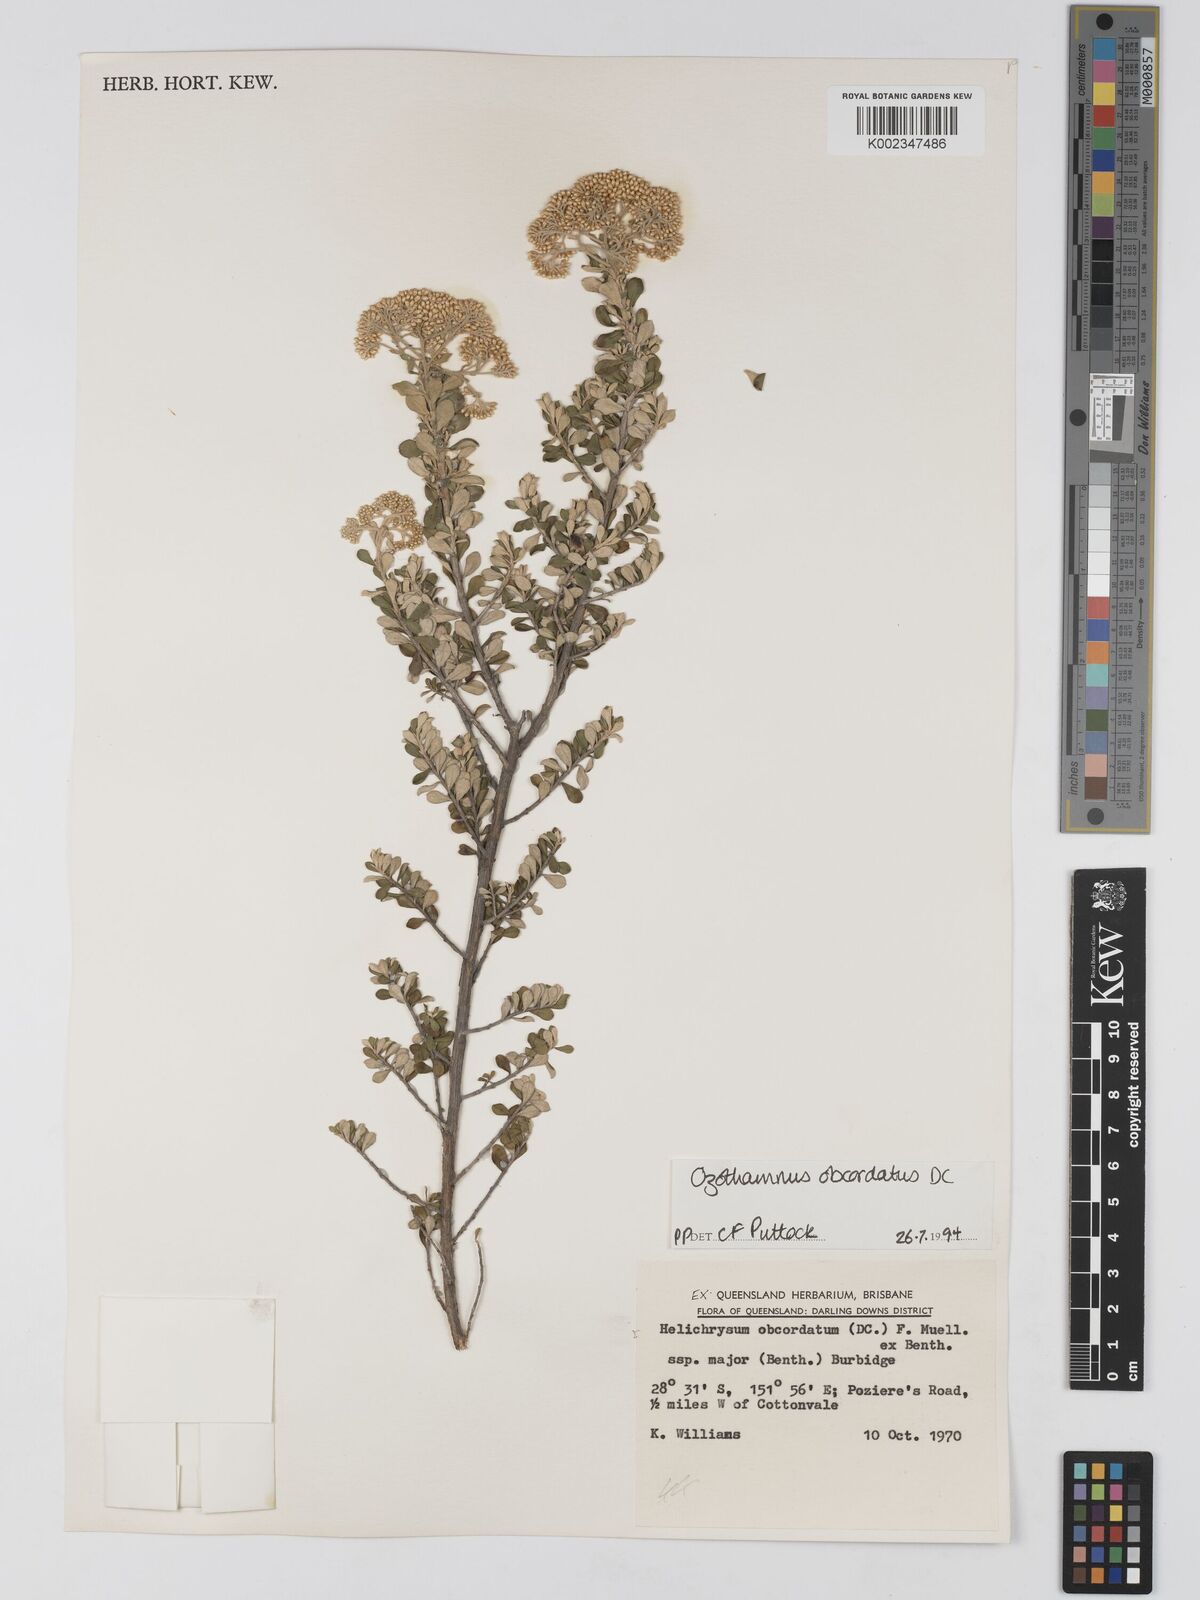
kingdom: Plantae
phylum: Tracheophyta
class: Magnoliopsida
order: Asterales
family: Asteraceae
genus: Ozothamnus
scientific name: Ozothamnus obcordatus
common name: Grey everlasting
